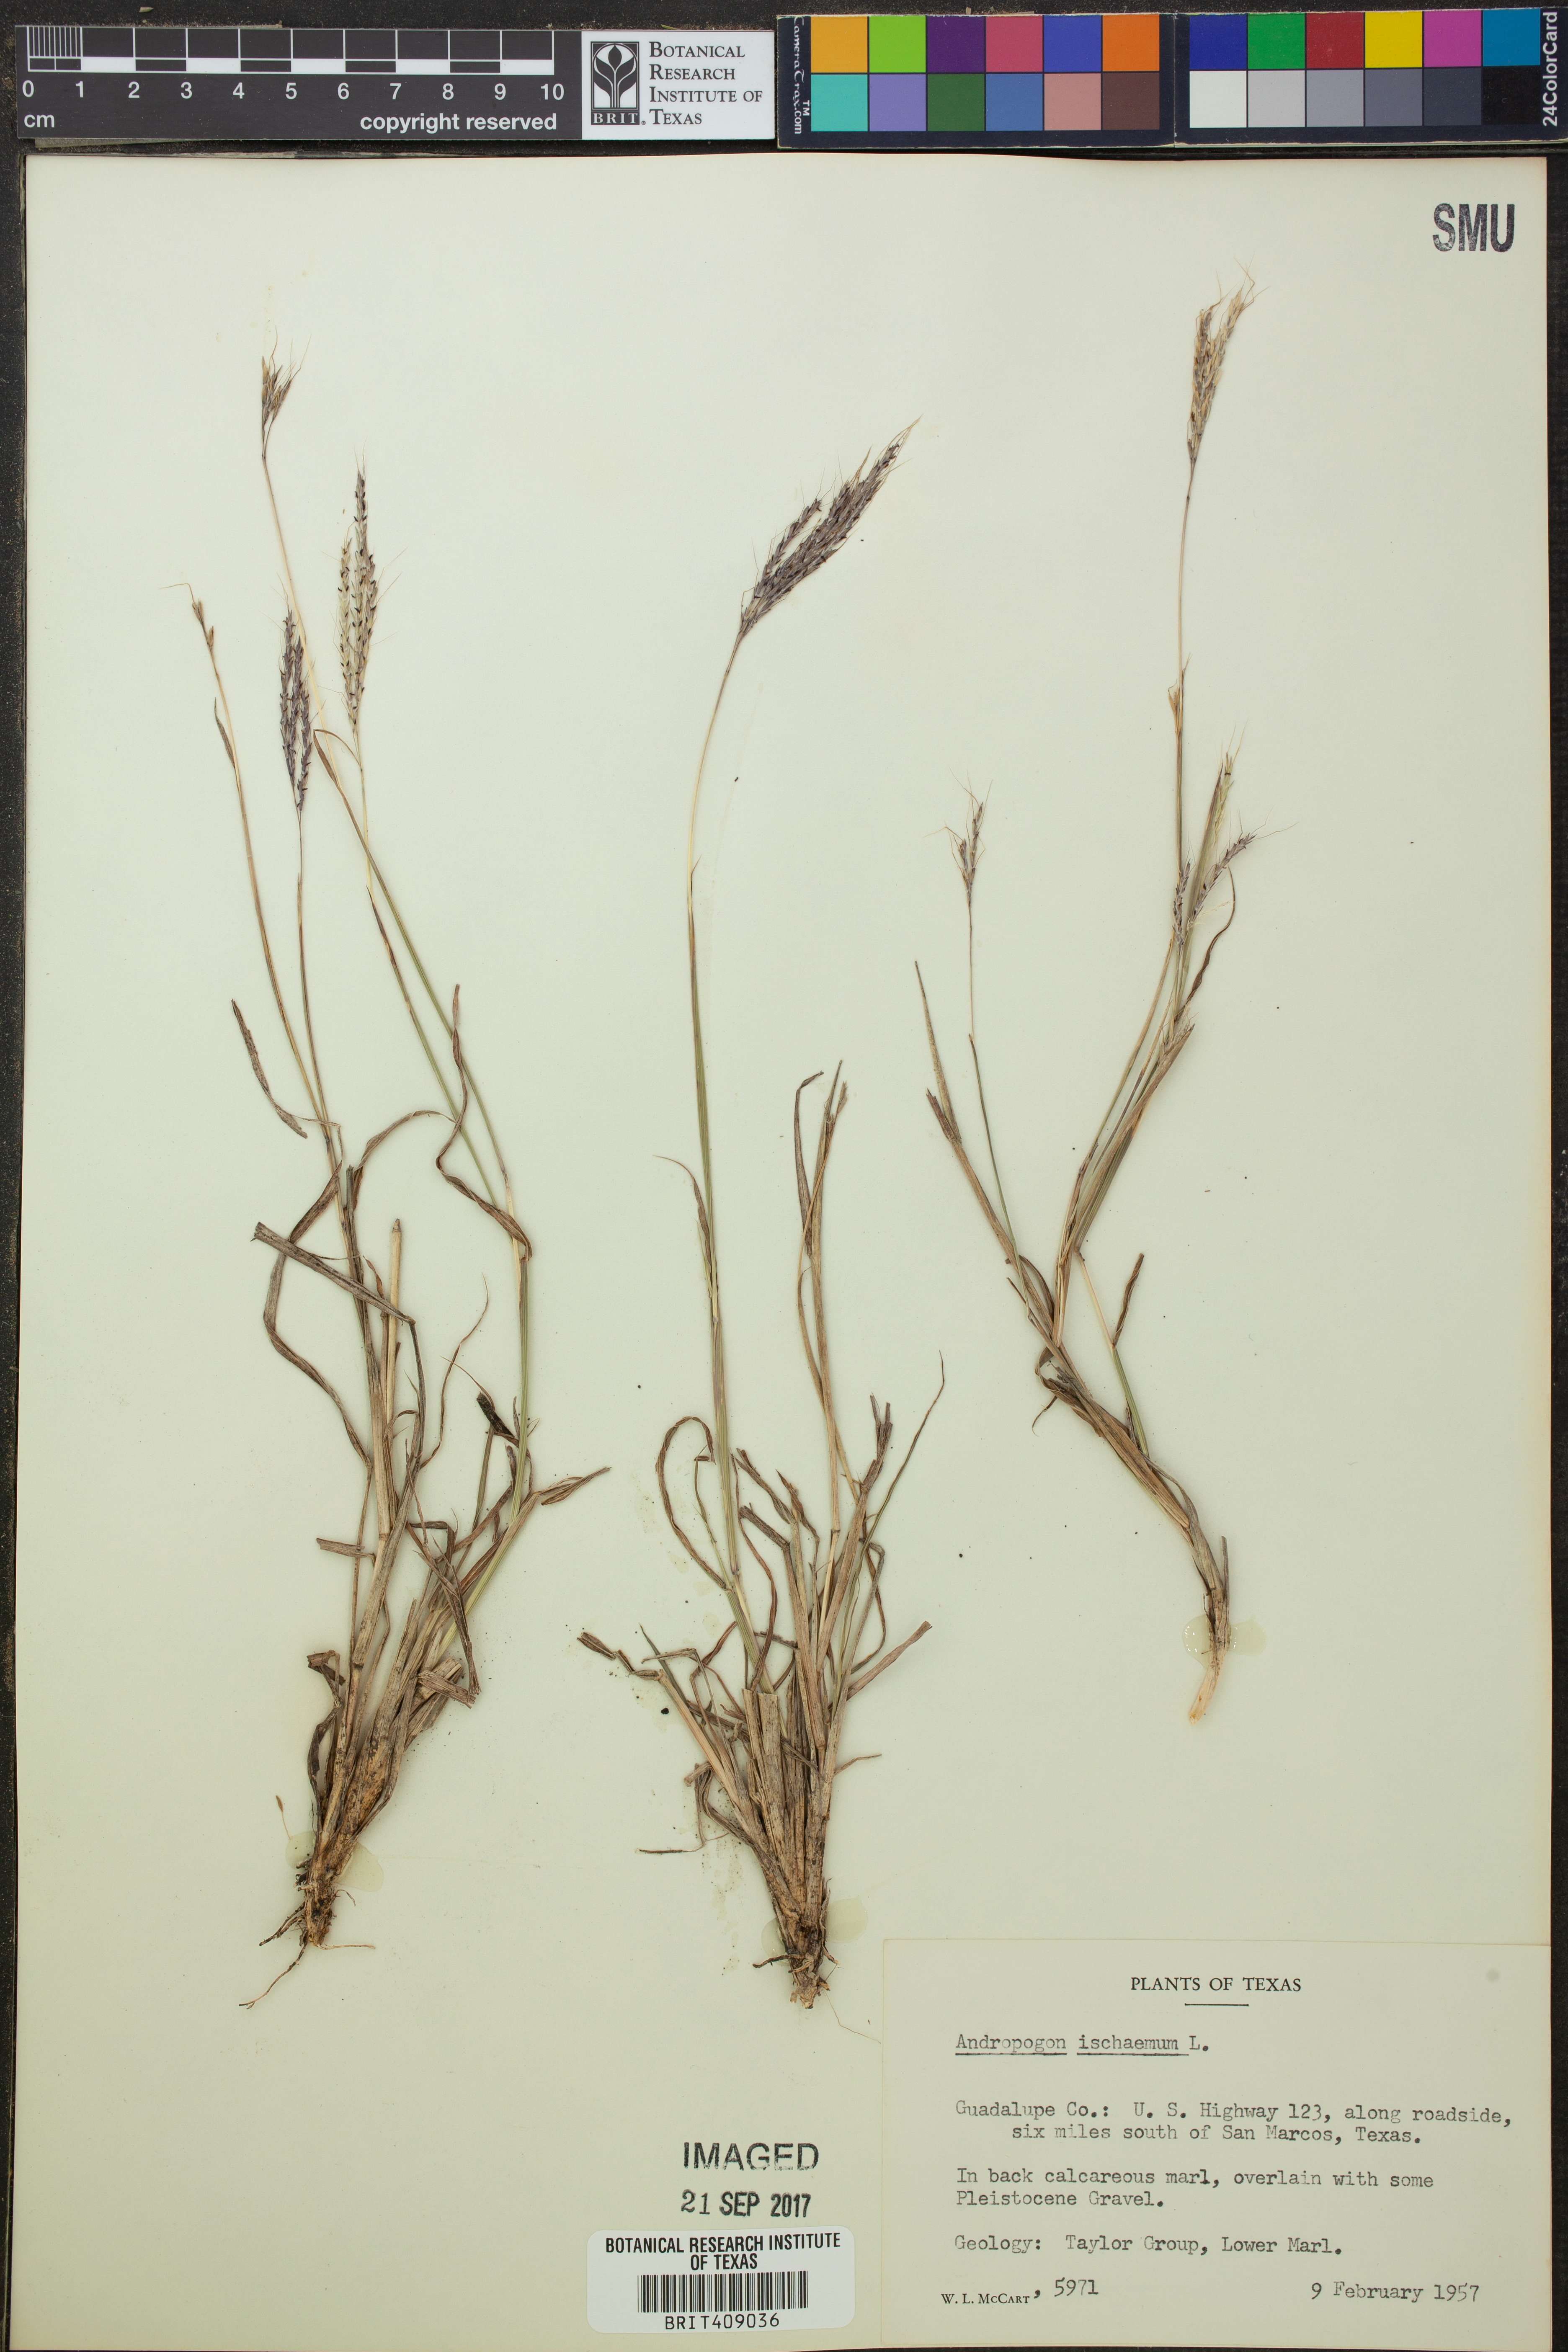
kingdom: Plantae
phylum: Tracheophyta
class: Liliopsida
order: Poales
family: Poaceae
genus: Andropogon
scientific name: Andropogon ischaemum
